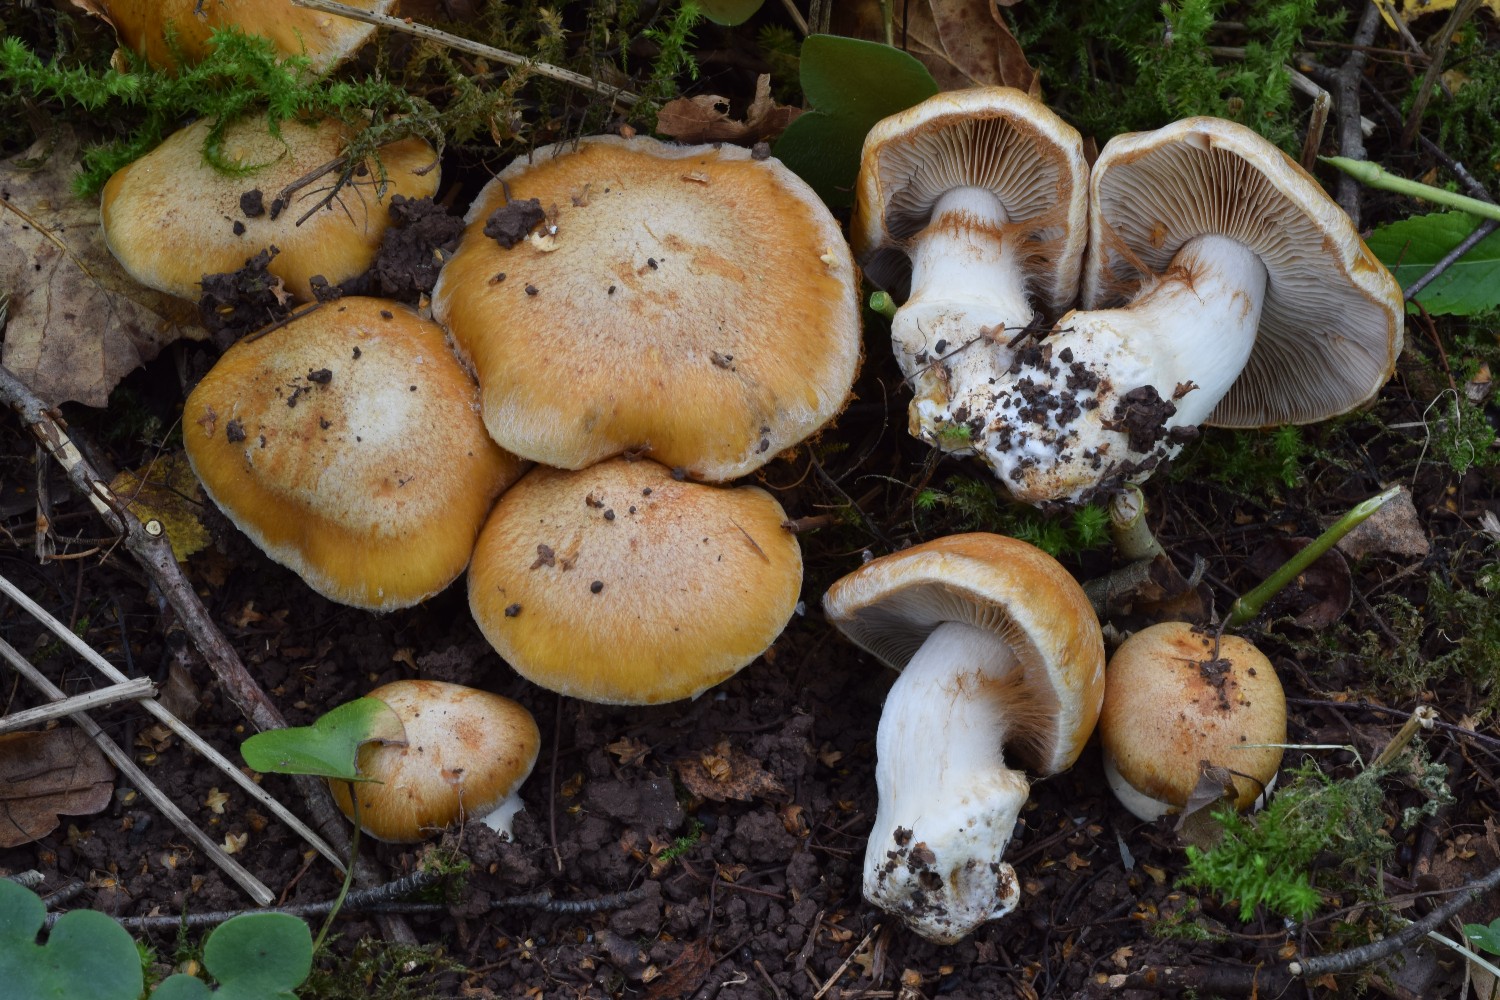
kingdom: Fungi
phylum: Basidiomycota
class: Agaricomycetes
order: Agaricales
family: Cortinariaceae
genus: Phlegmacium
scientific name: Phlegmacium subdecolorans
